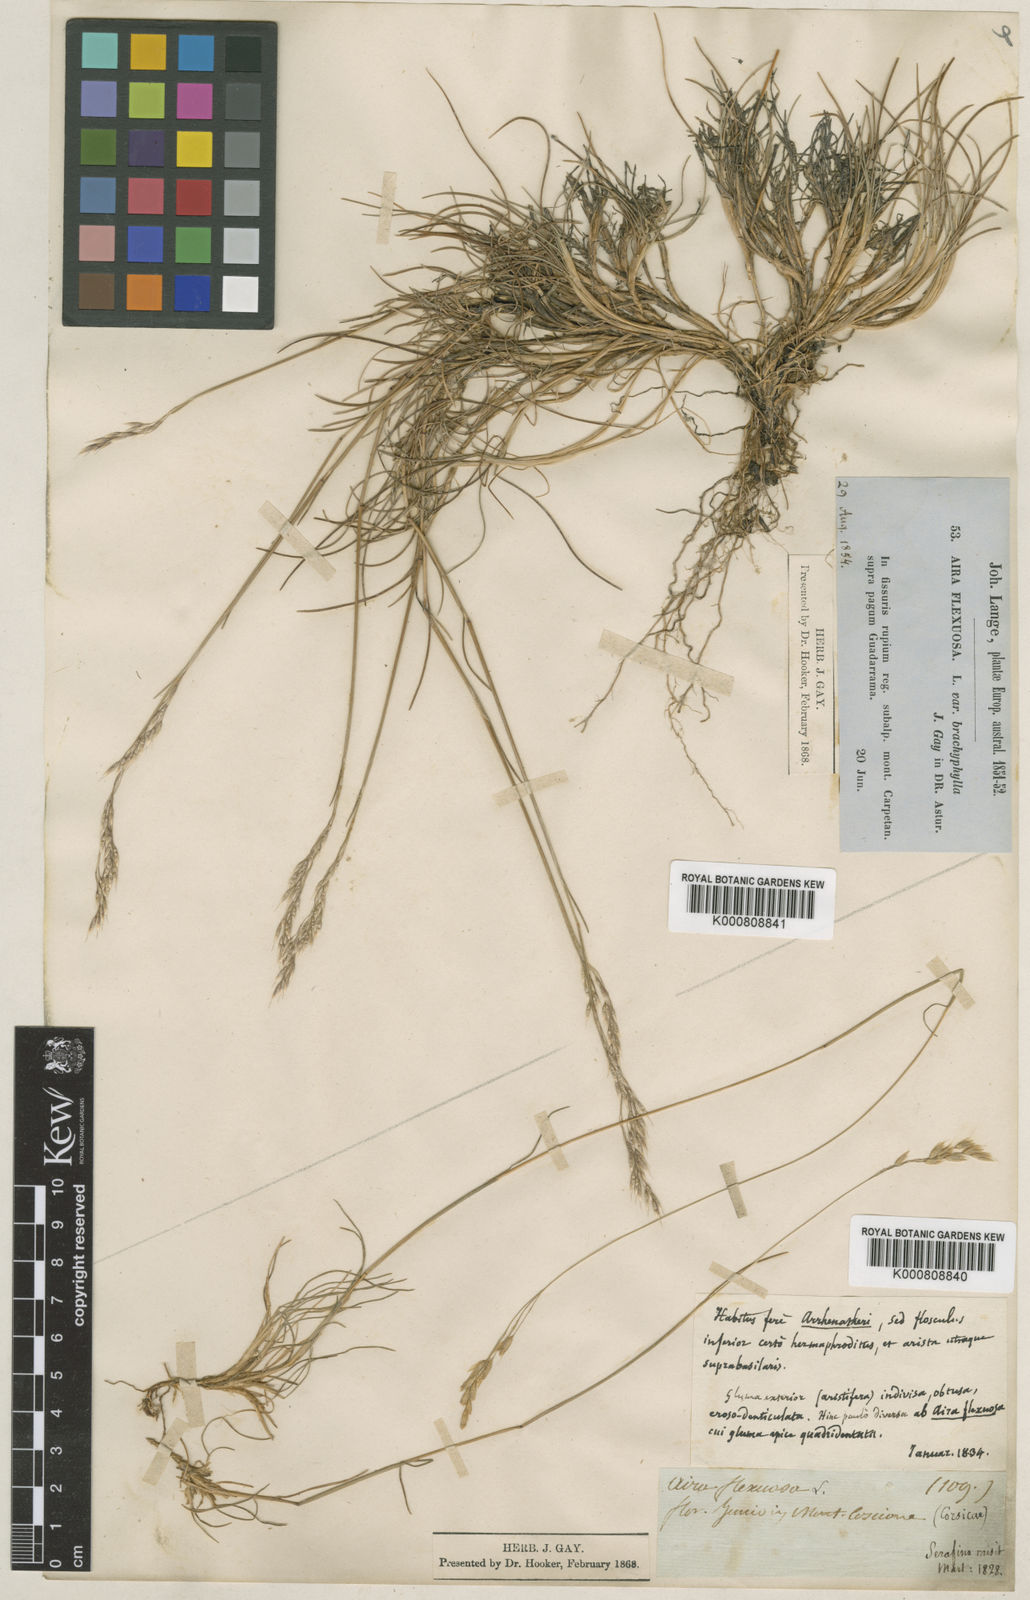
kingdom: Plantae
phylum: Tracheophyta
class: Liliopsida
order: Poales
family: Poaceae
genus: Avenella
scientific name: Avenella flexuosa
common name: Wavy hairgrass
